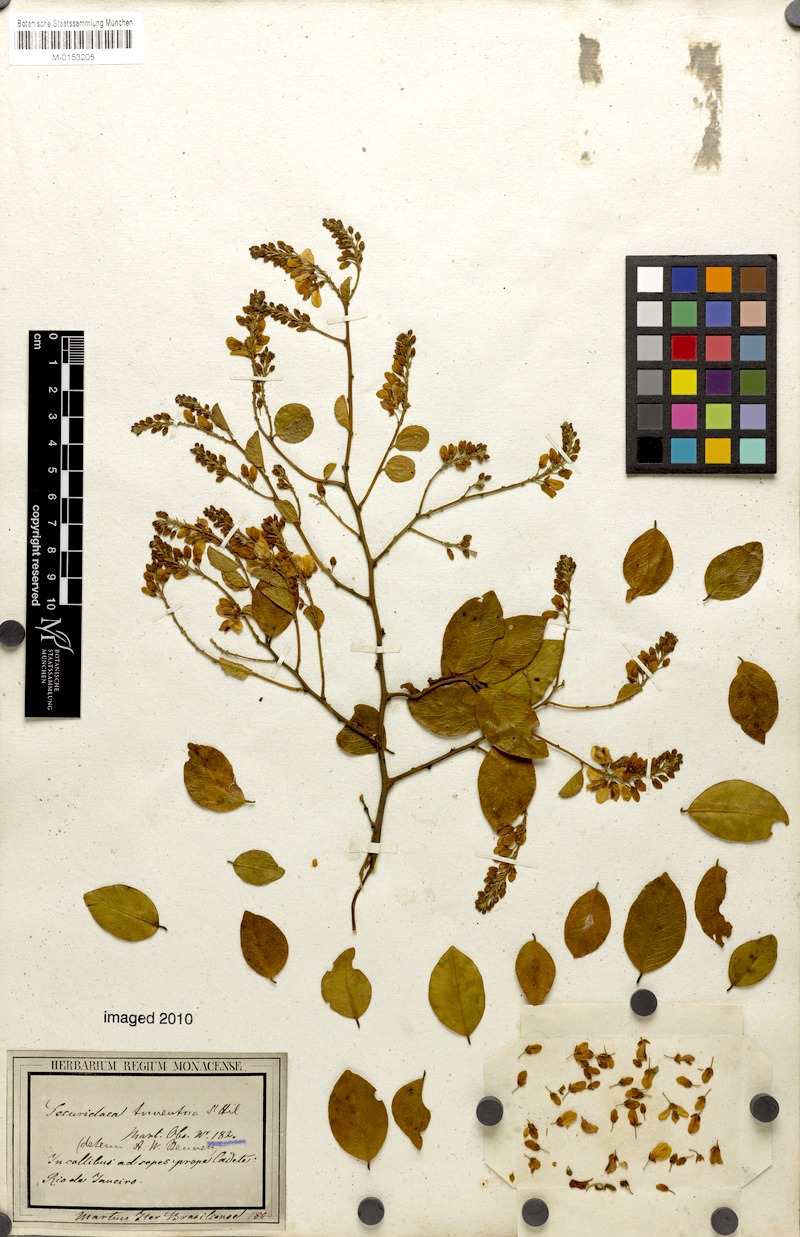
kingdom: Plantae
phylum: Tracheophyta
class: Magnoliopsida
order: Fabales
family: Polygalaceae
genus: Securidaca
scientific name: Securidaca tomentosa
